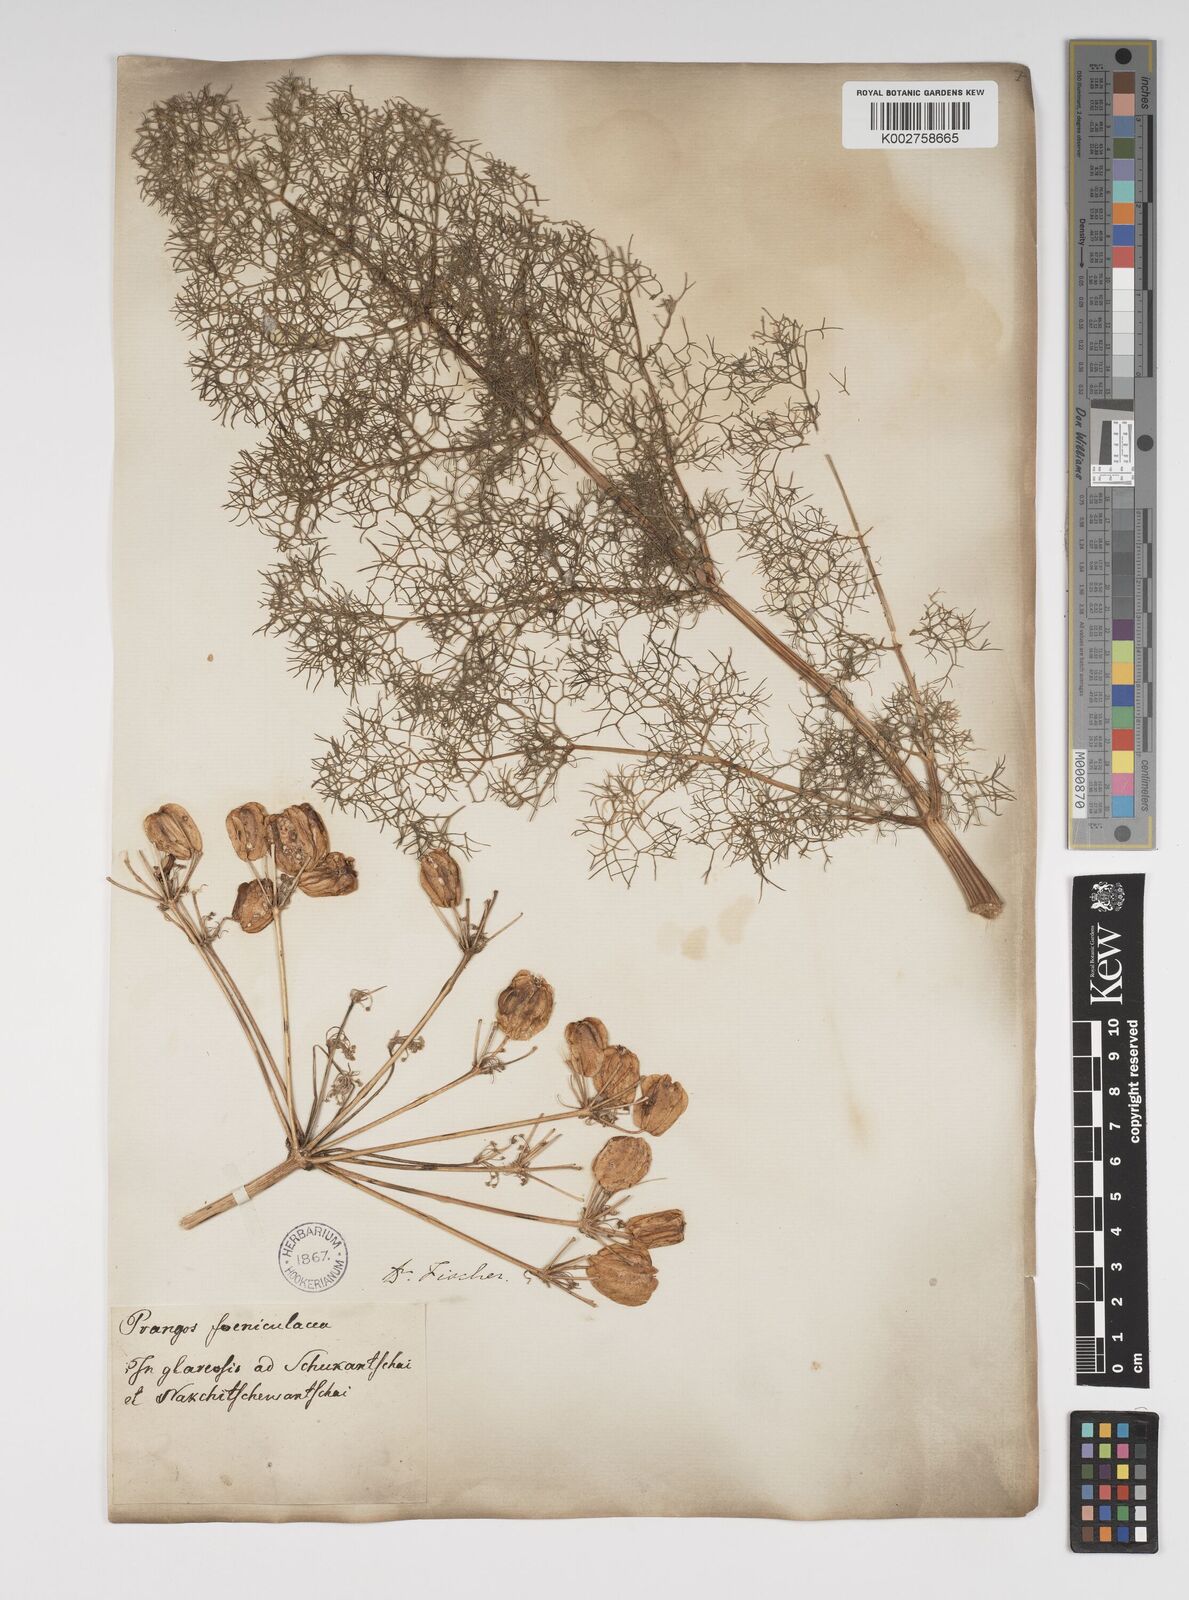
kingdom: Plantae
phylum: Tracheophyta
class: Magnoliopsida
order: Apiales
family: Apiaceae
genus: Prangos
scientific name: Prangos ferulacea
